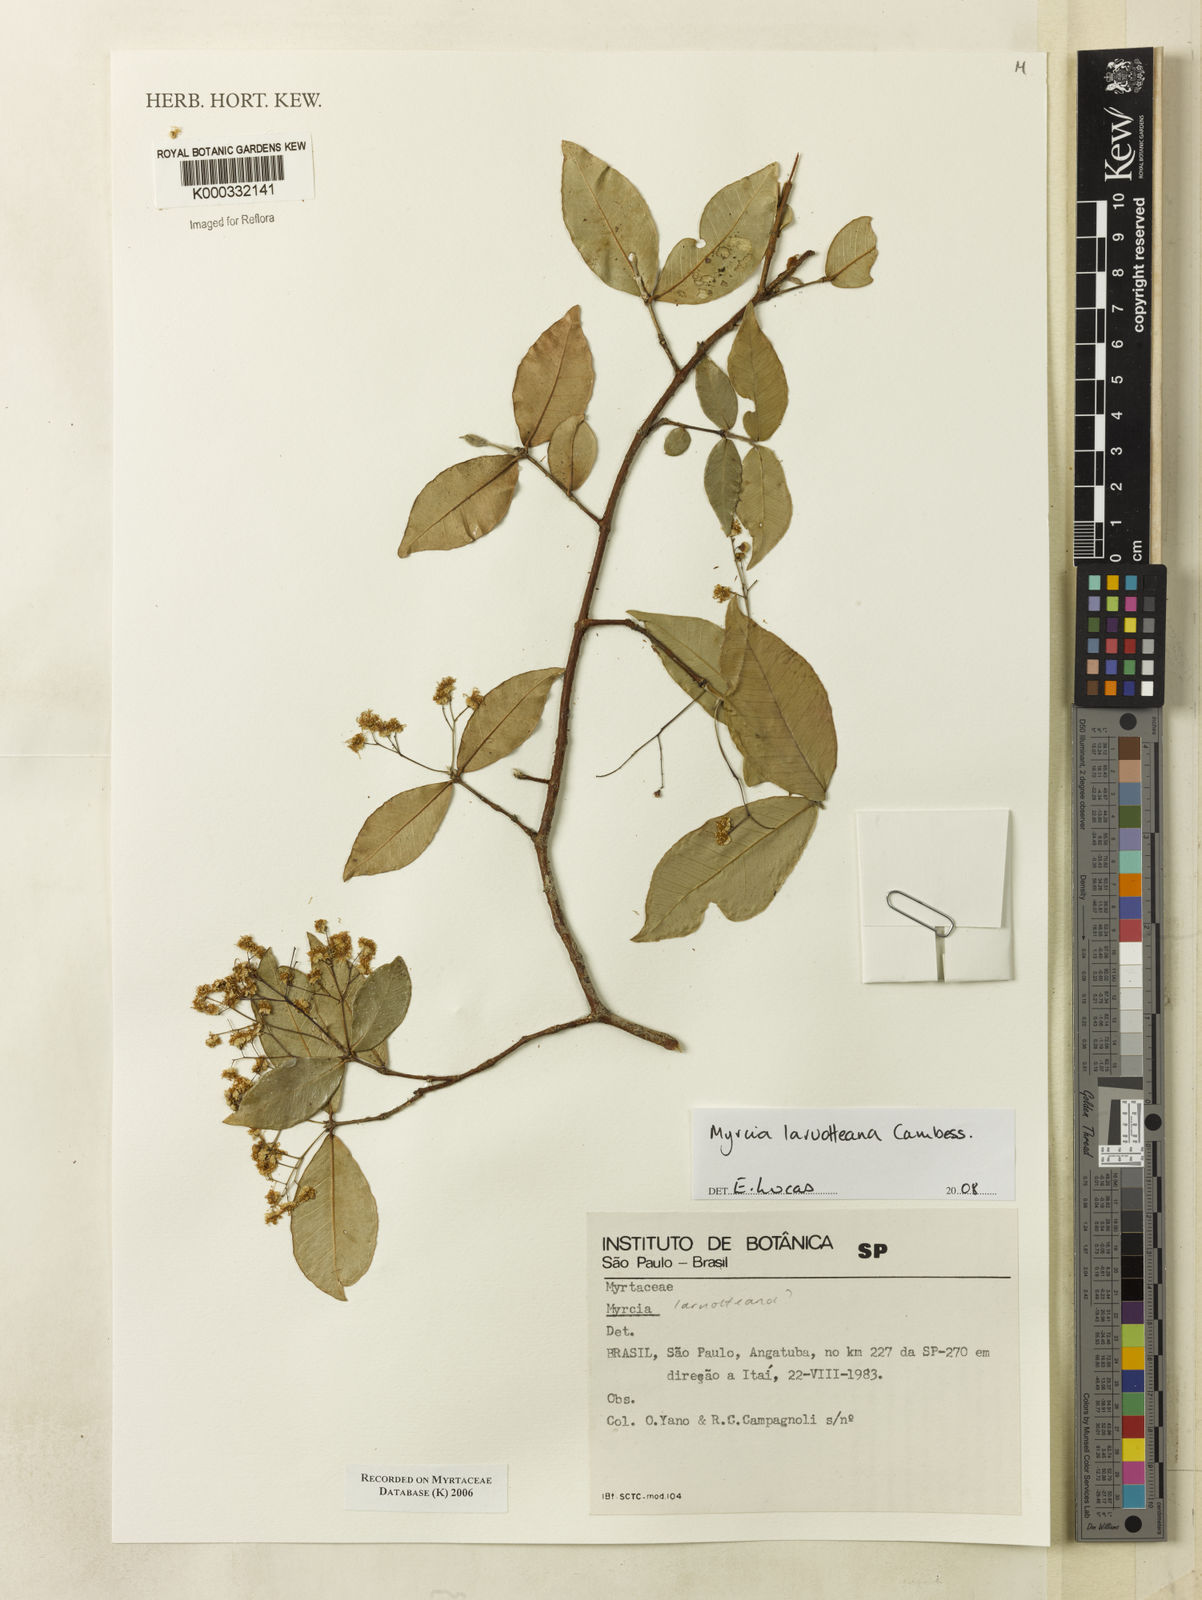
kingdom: Plantae
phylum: Tracheophyta
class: Magnoliopsida
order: Myrtales
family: Myrtaceae
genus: Myrcia
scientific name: Myrcia
